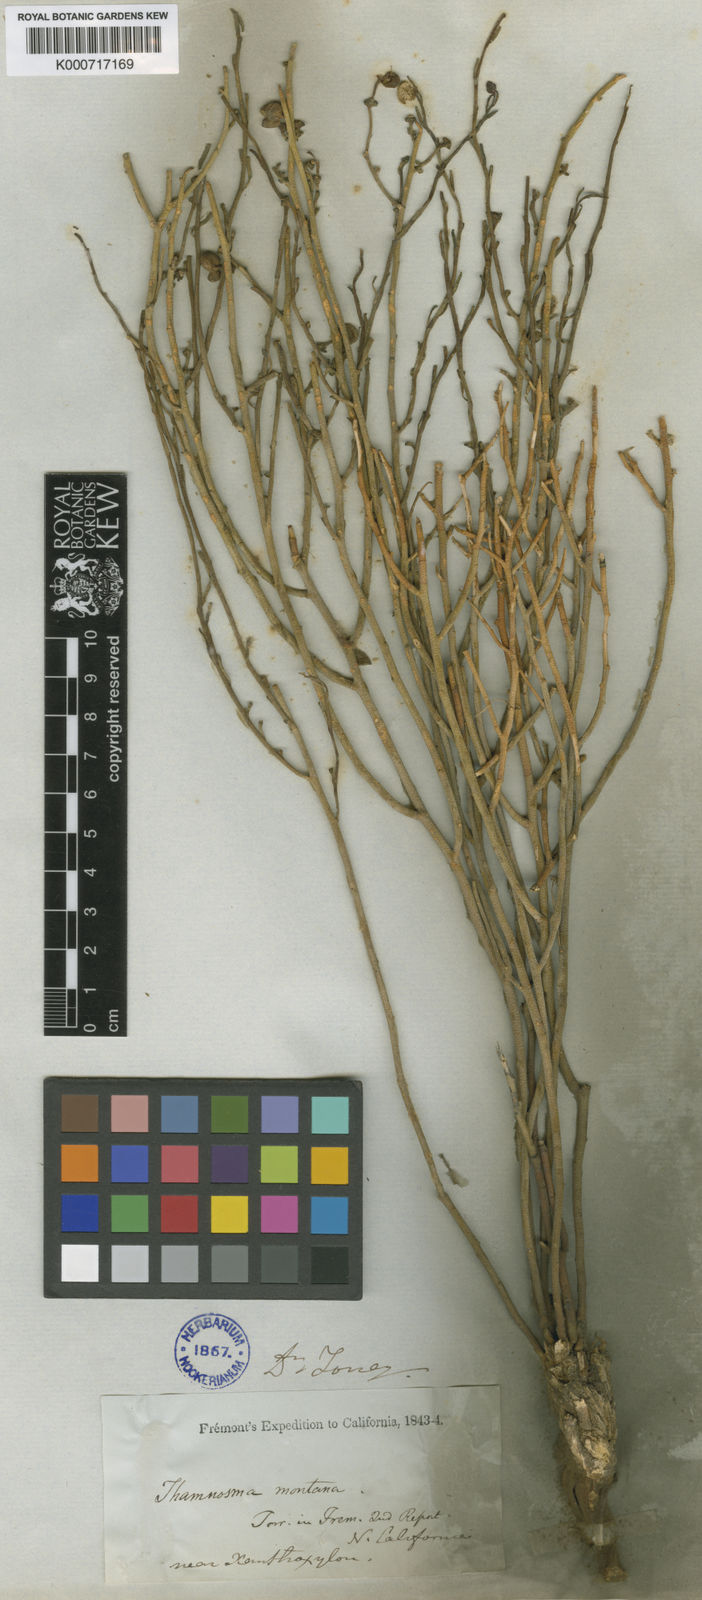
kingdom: Plantae
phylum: Tracheophyta
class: Magnoliopsida
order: Sapindales
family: Rutaceae
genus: Thamnosma
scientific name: Thamnosma montana
